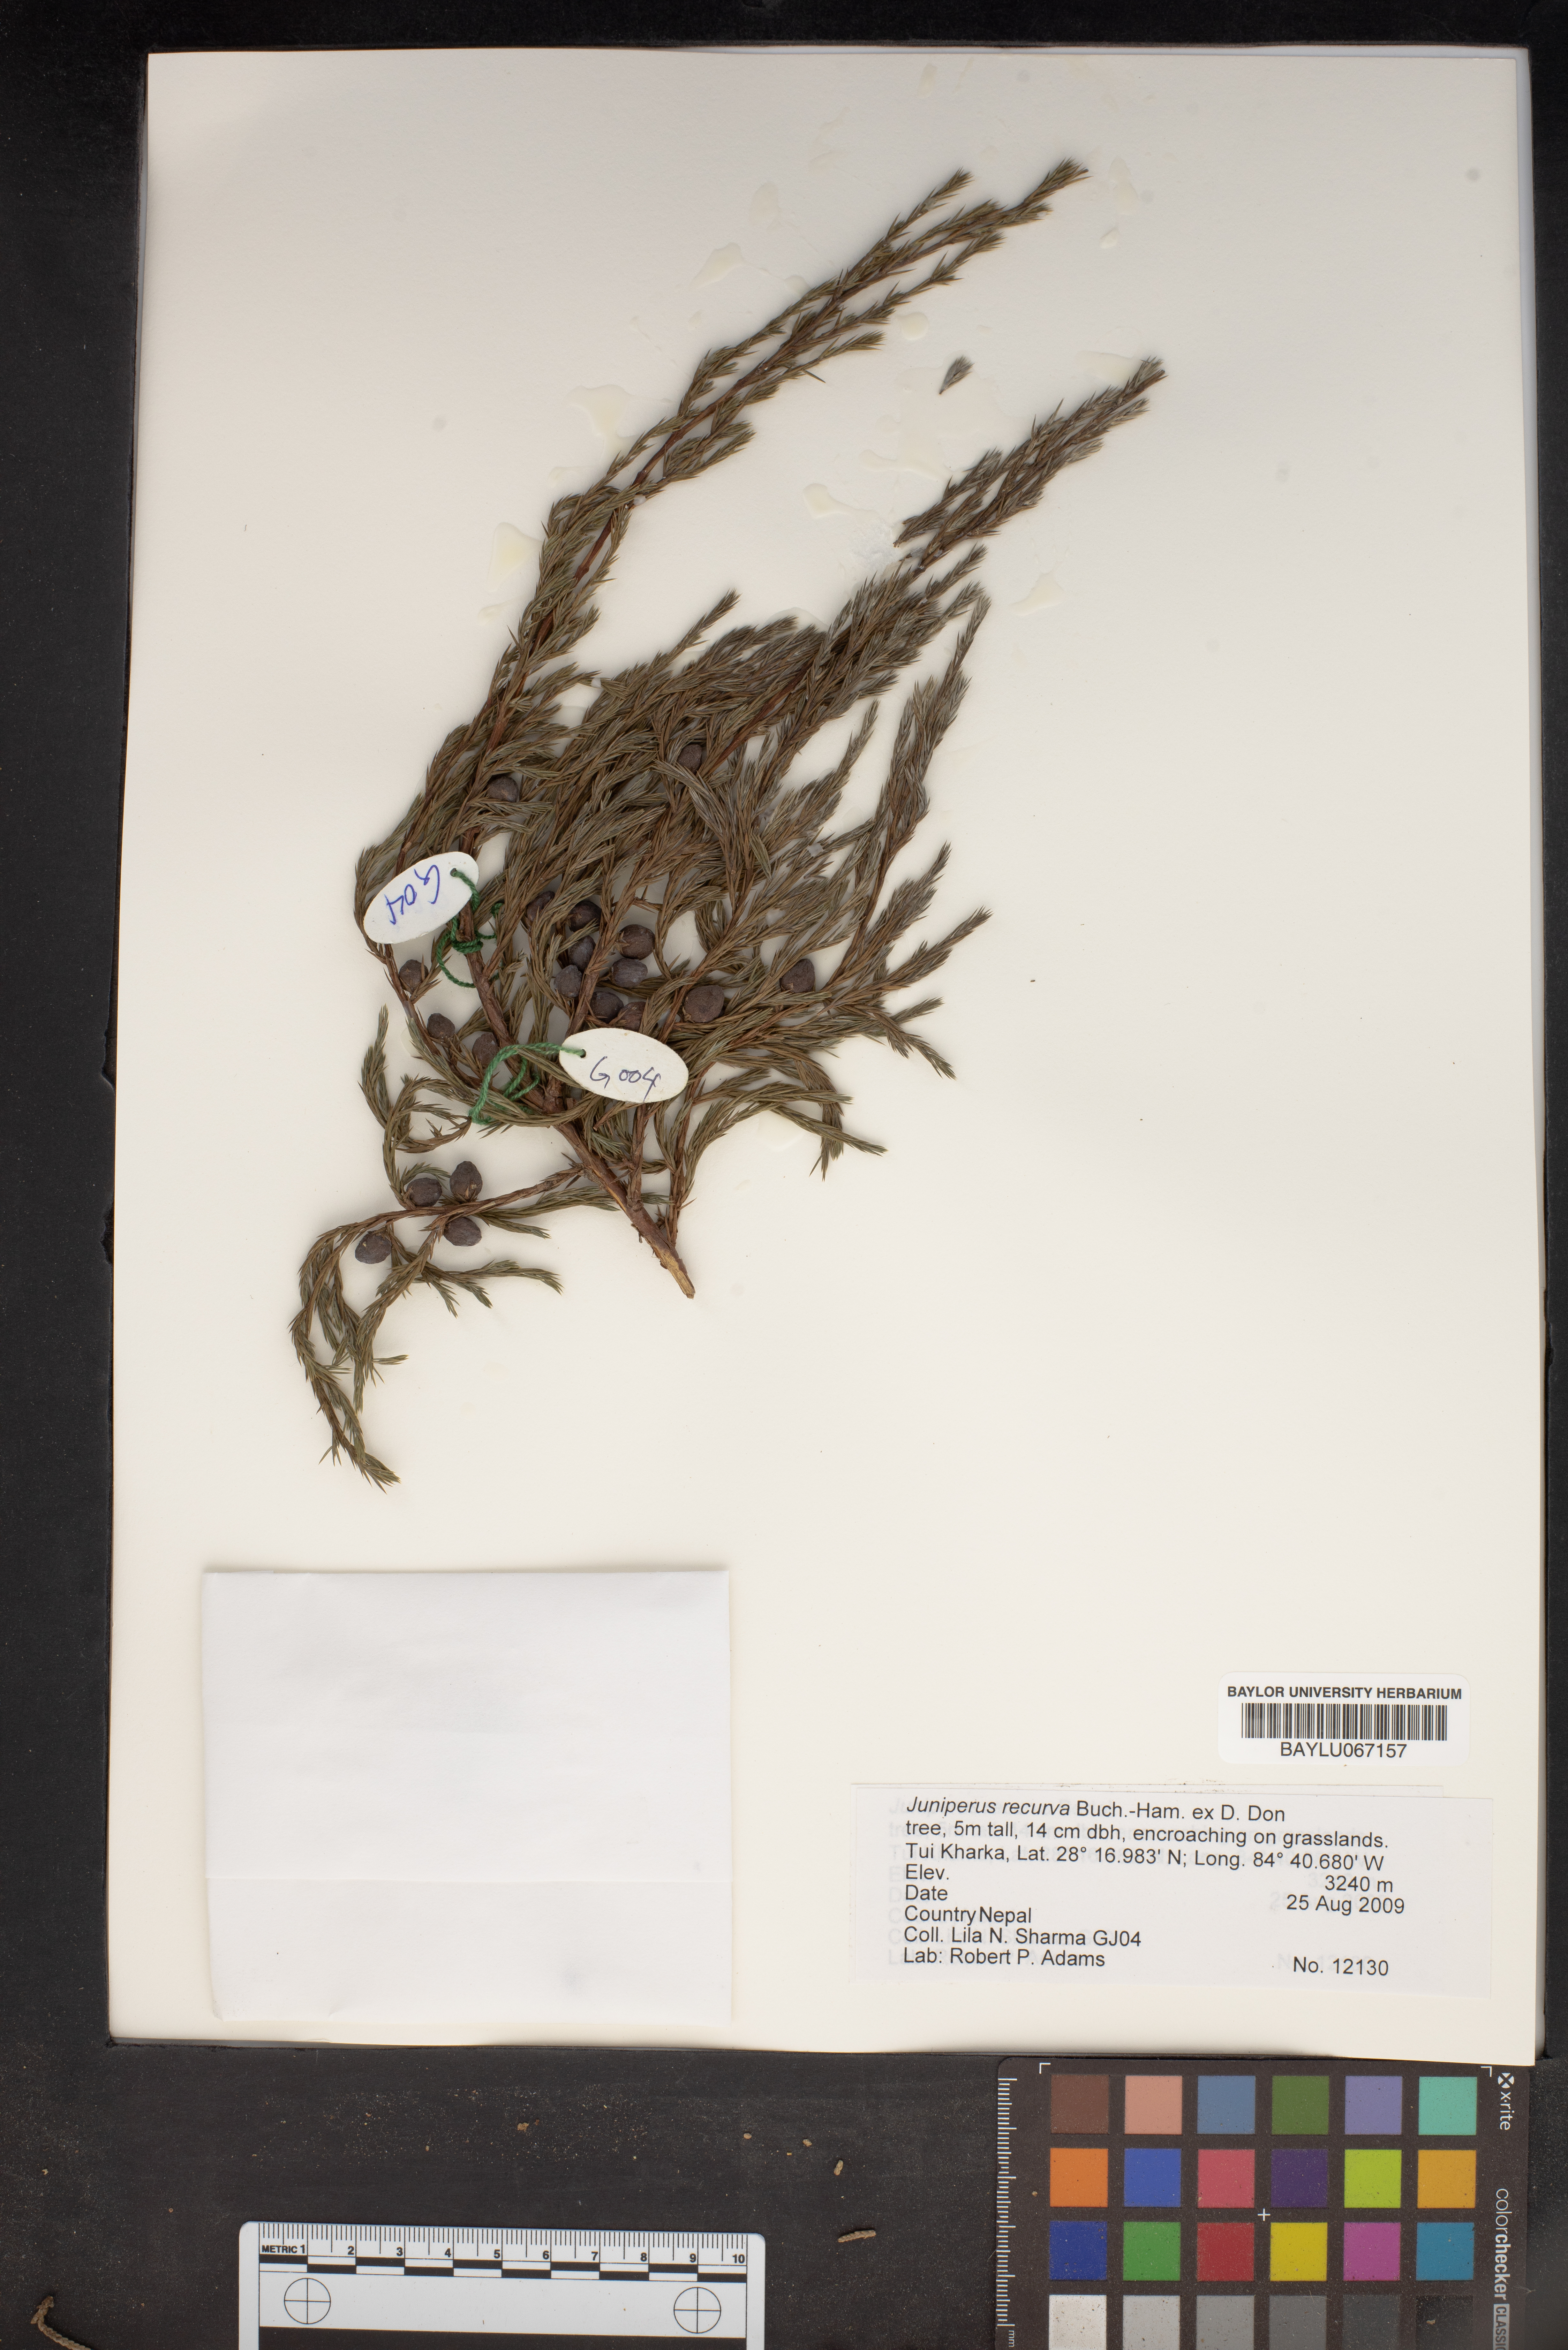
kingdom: Plantae
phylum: Tracheophyta
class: Pinopsida
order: Pinales
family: Cupressaceae
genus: Juniperus
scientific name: Juniperus recurva
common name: Drooping juniper
